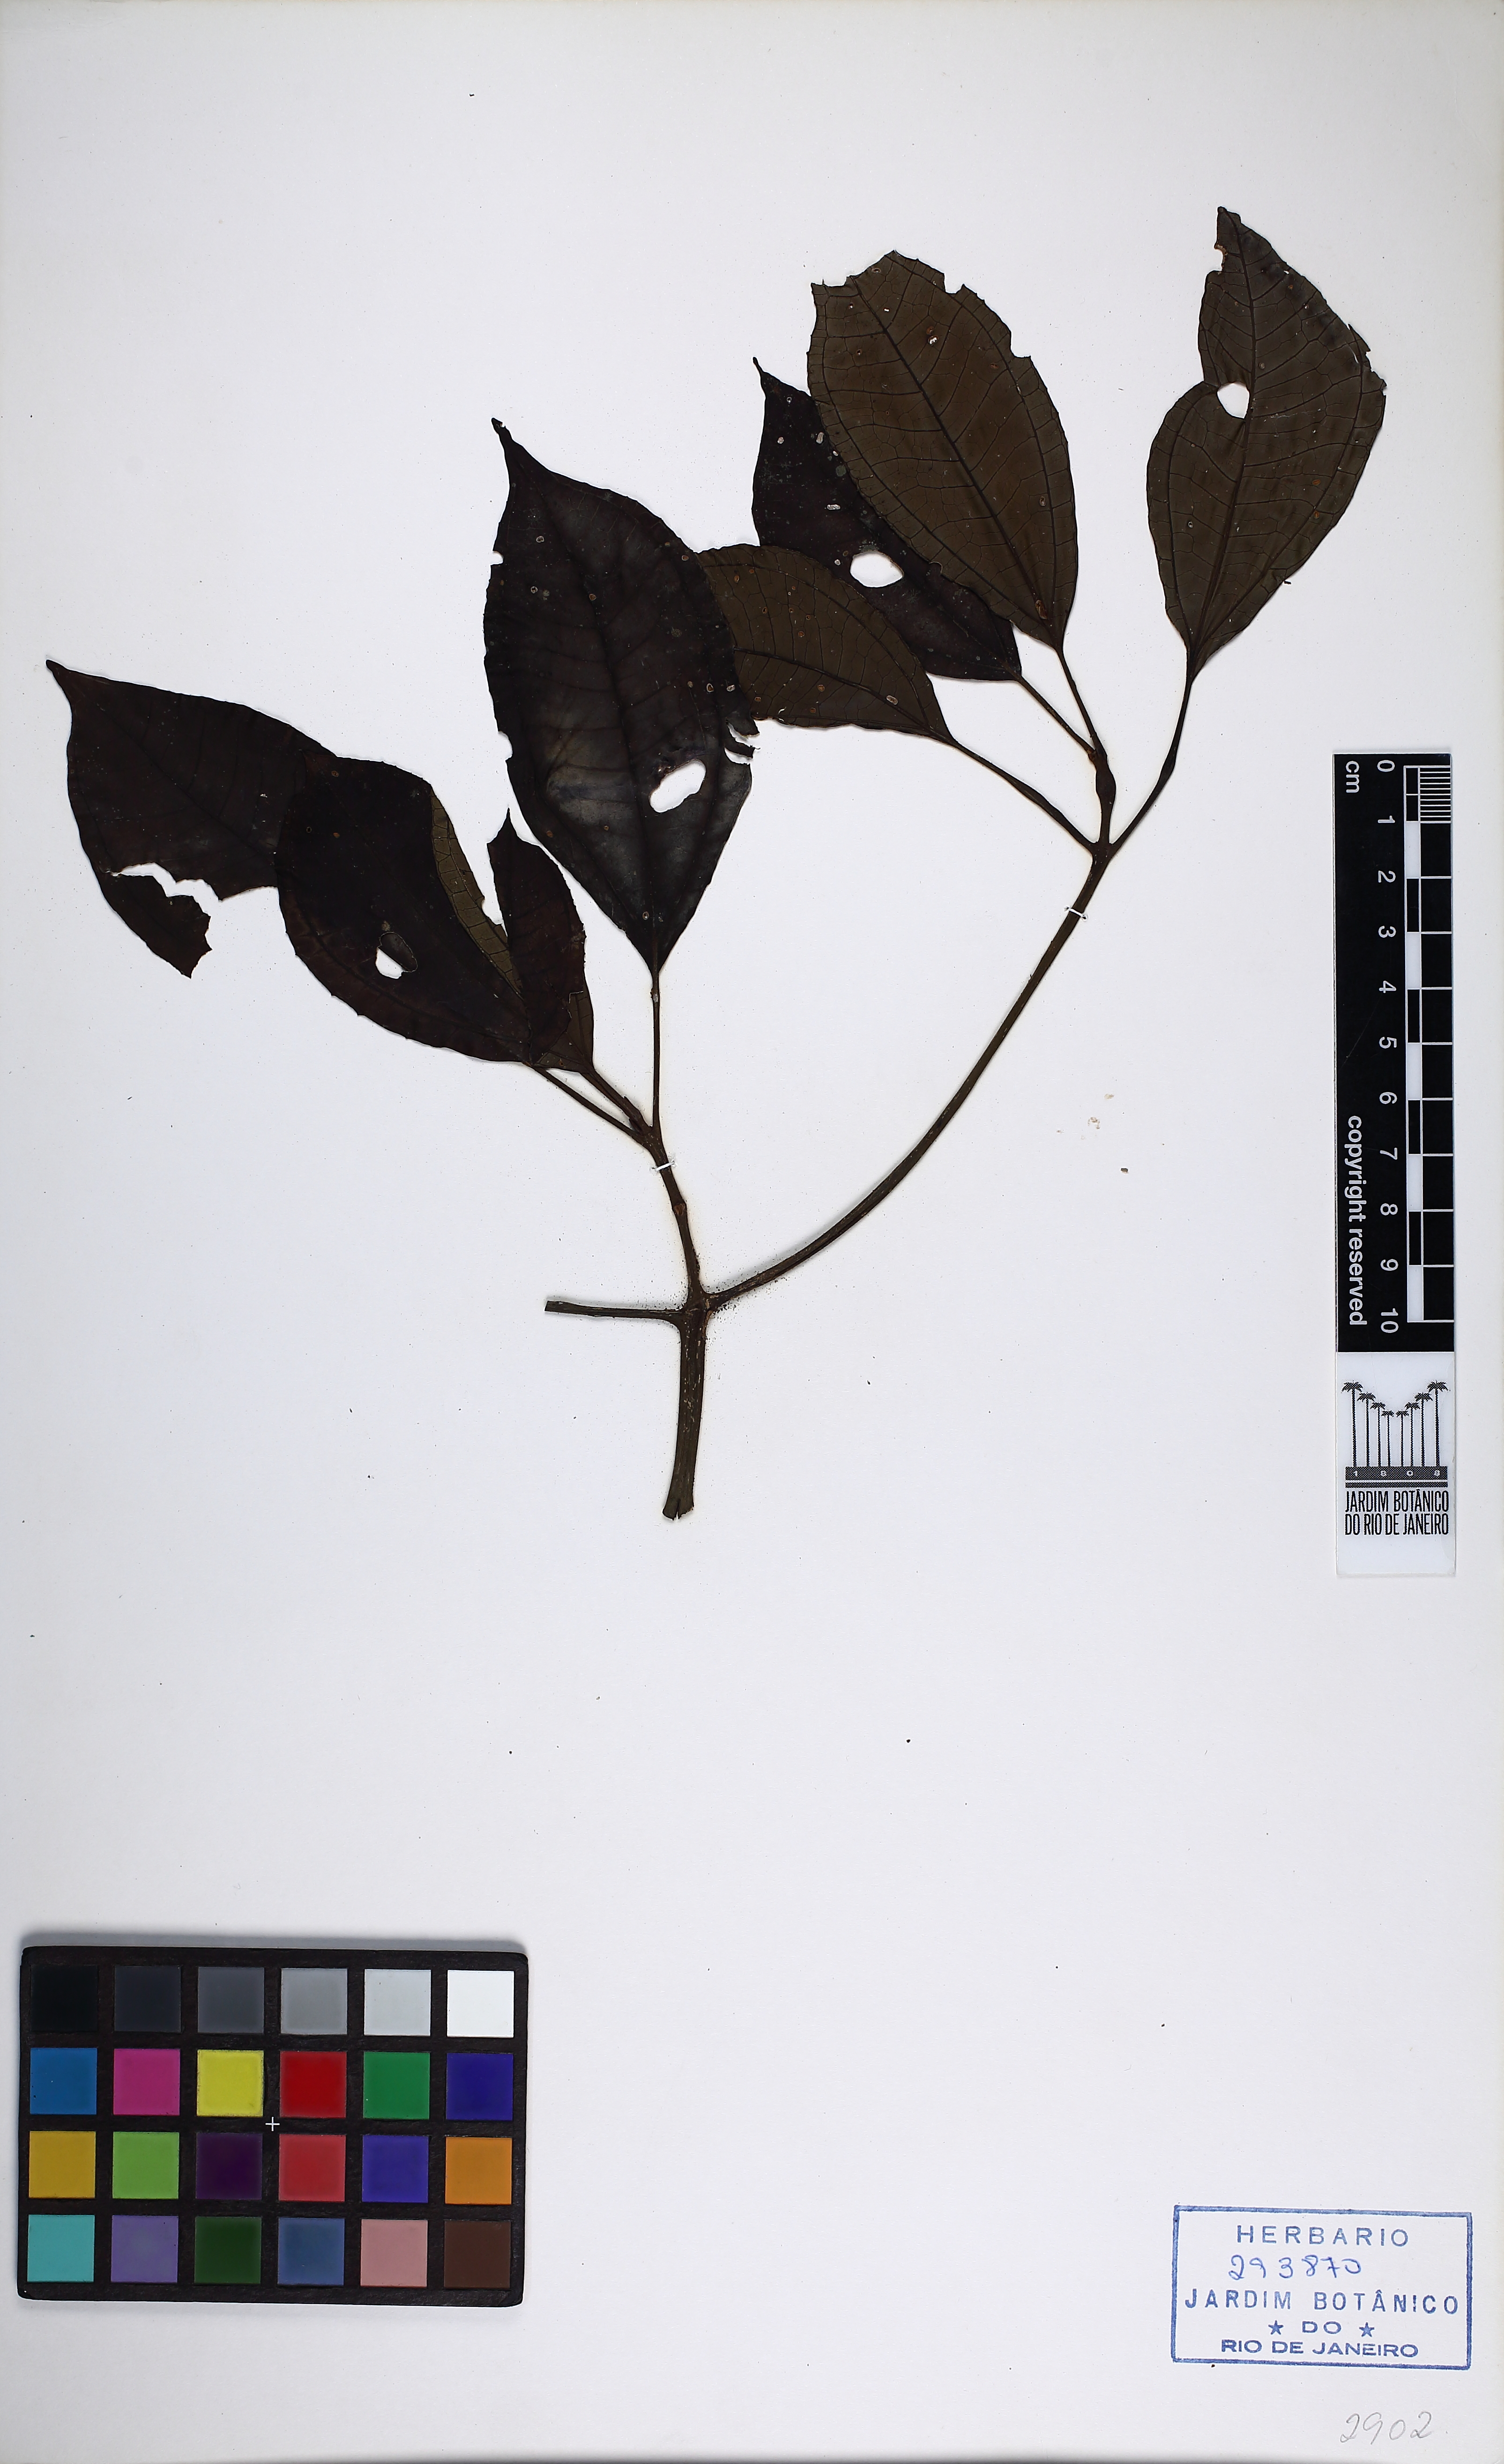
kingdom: Plantae
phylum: Tracheophyta
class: Magnoliopsida
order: Myrtales
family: Melastomataceae
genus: Henriettea
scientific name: Henriettea glabra
